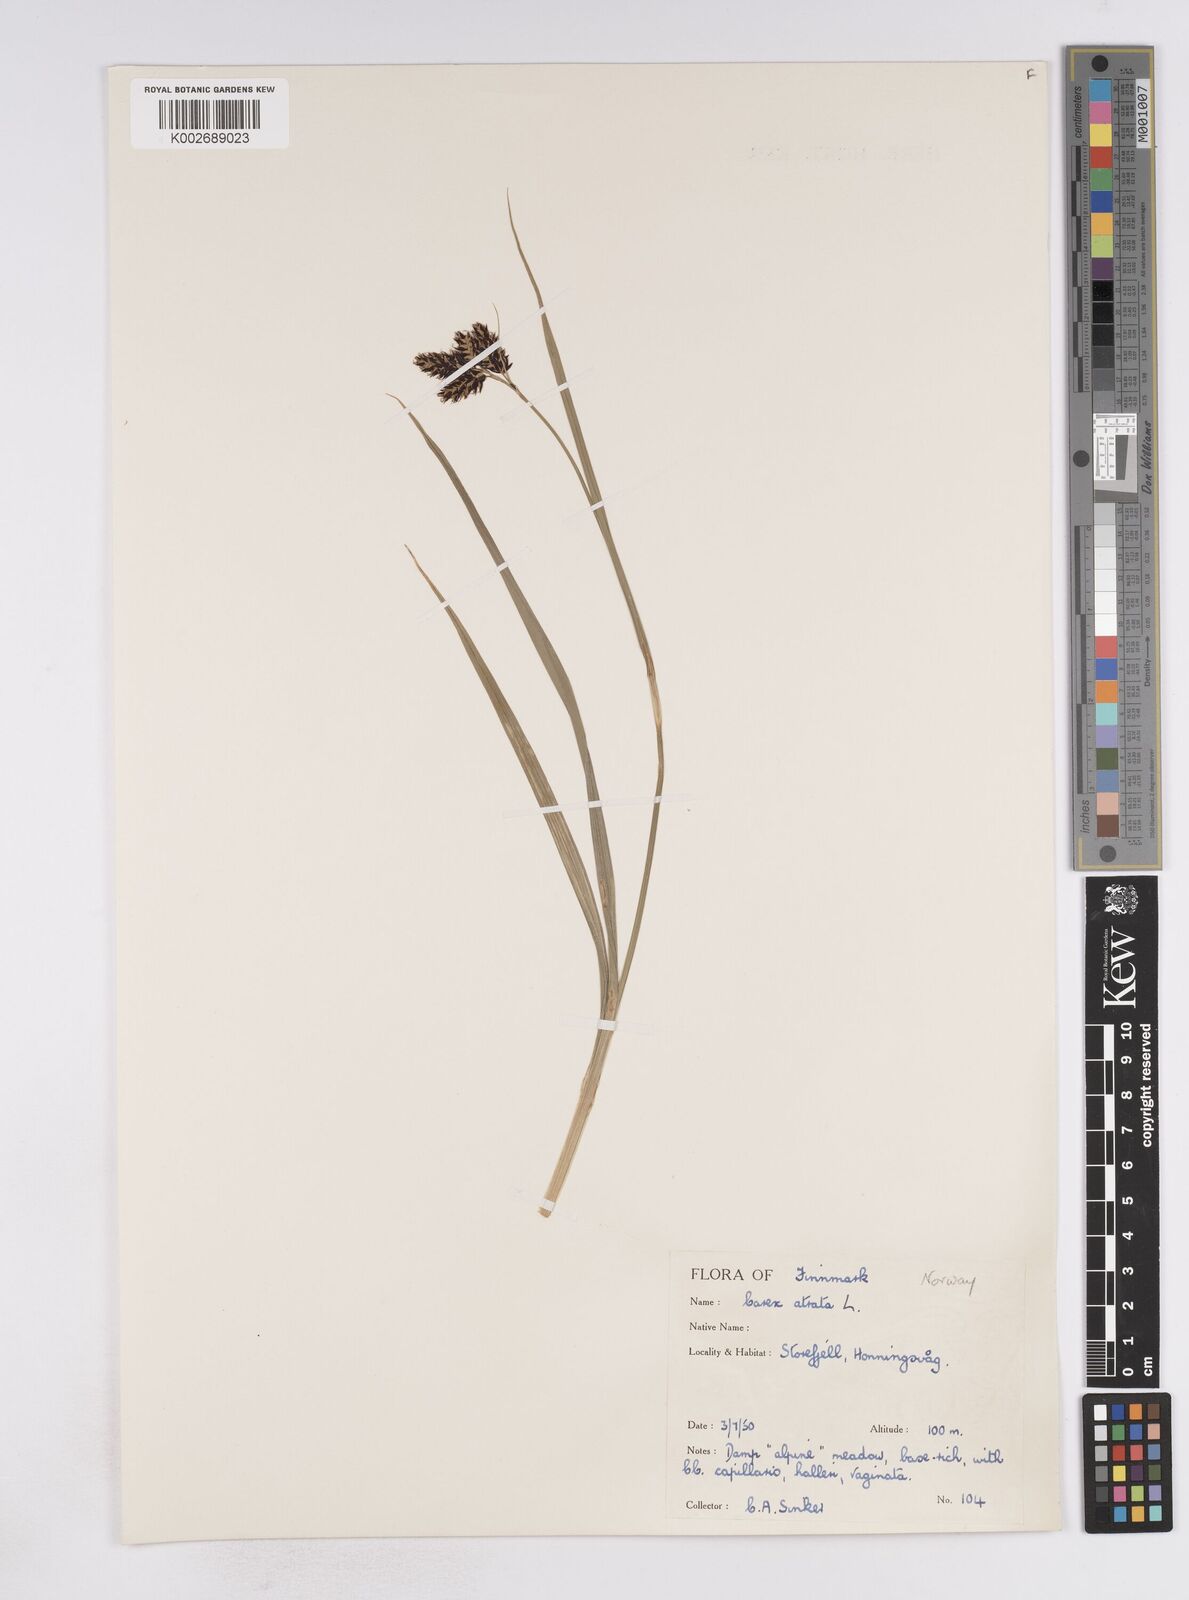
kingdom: Plantae
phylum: Tracheophyta
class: Liliopsida
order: Poales
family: Cyperaceae
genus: Carex
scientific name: Carex atrata
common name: Black alpine sedge
